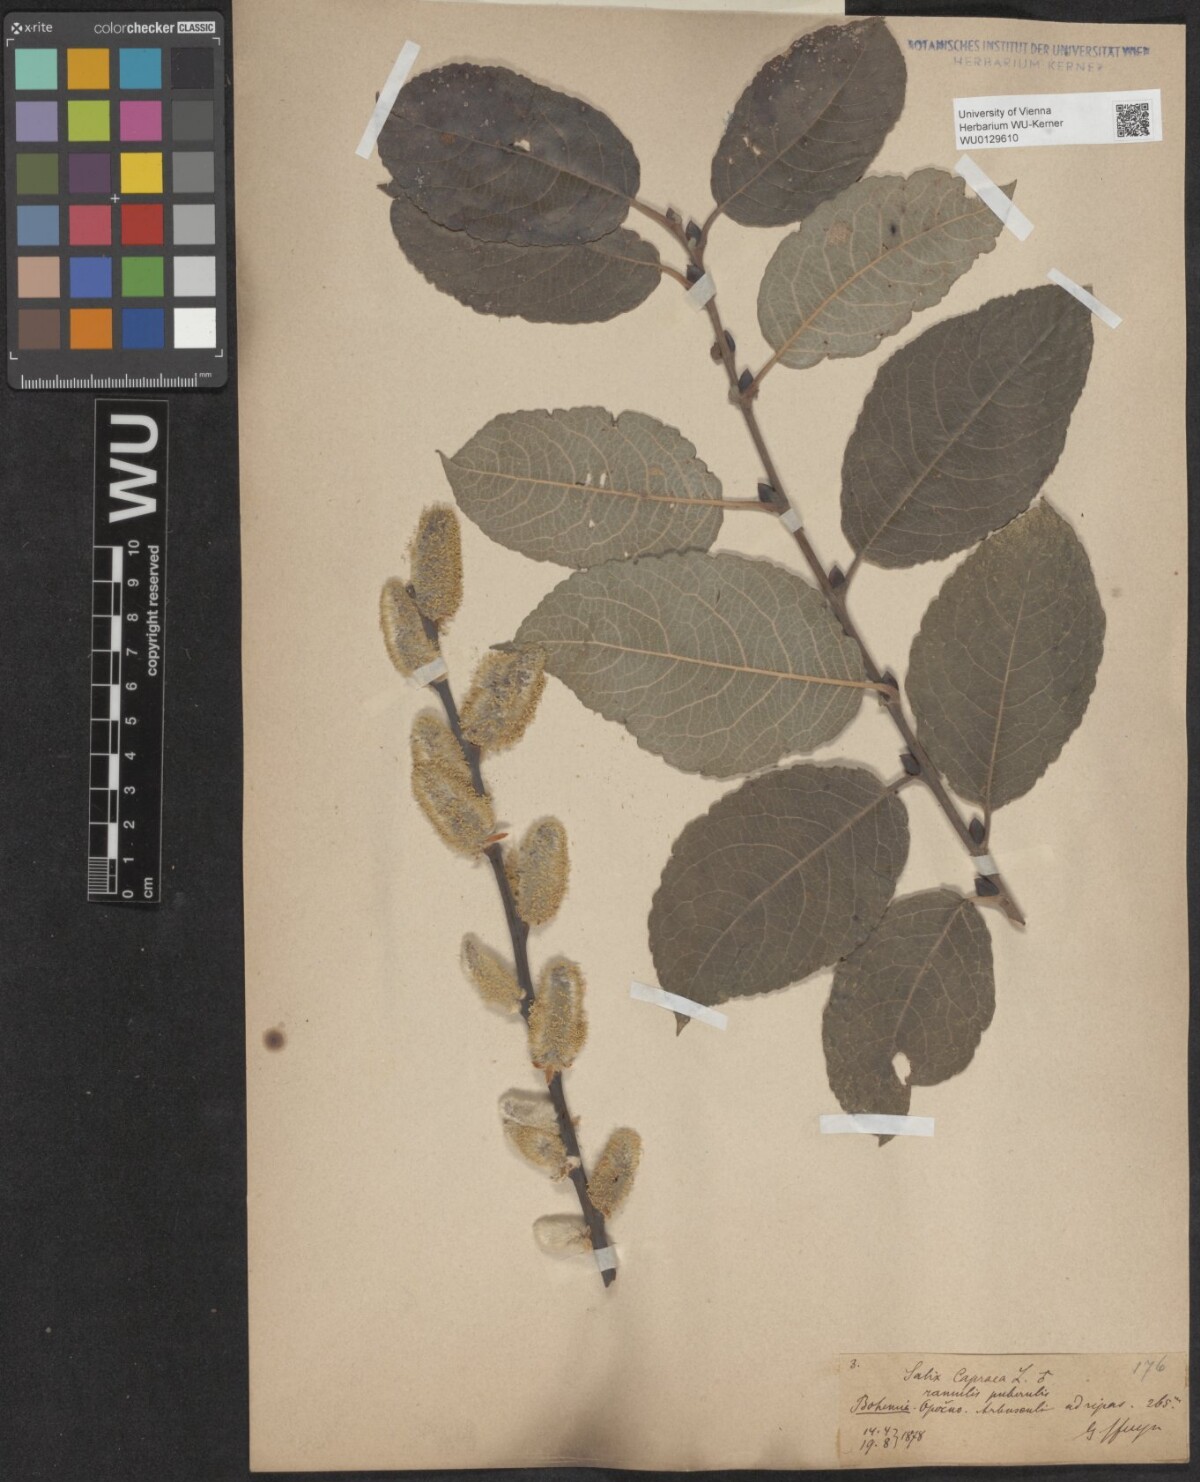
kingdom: Plantae
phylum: Tracheophyta
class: Magnoliopsida
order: Malpighiales
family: Salicaceae
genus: Salix
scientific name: Salix caprea
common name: Goat willow
